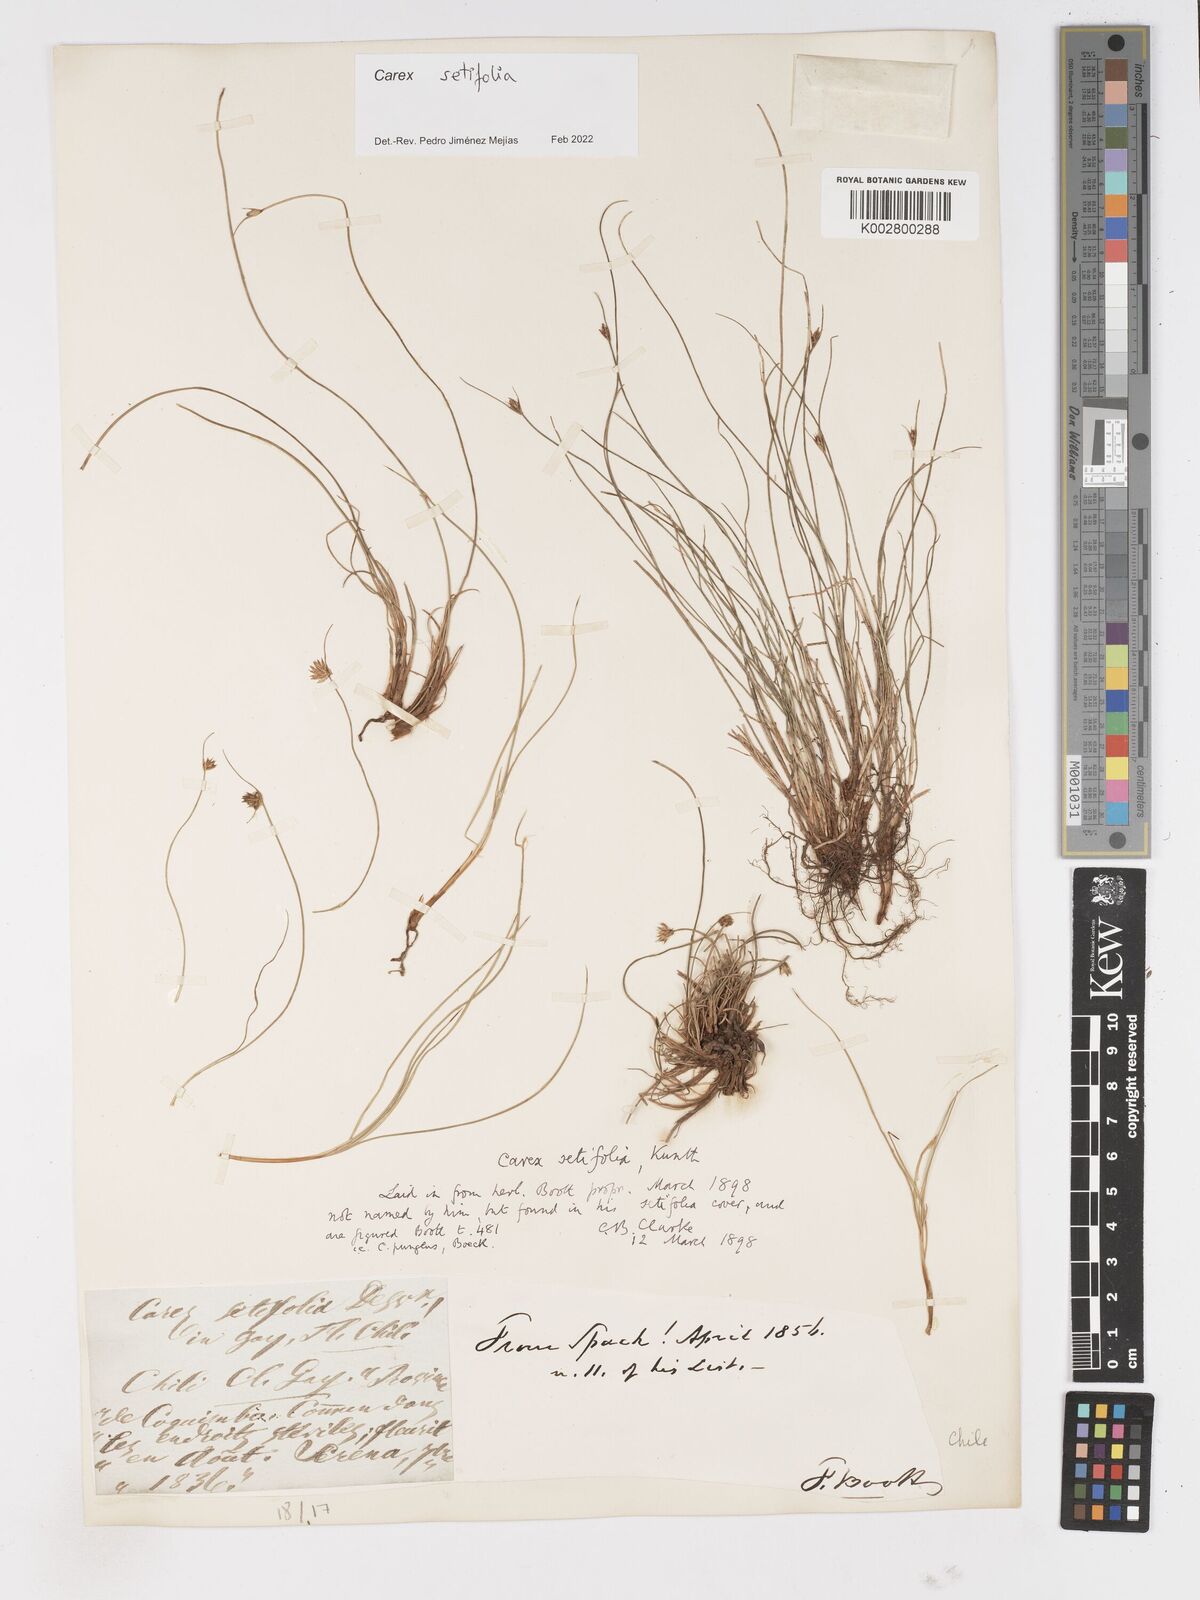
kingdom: Plantae
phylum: Tracheophyta
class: Liliopsida
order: Poales
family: Cyperaceae
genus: Carex
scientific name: Carex setifolia
